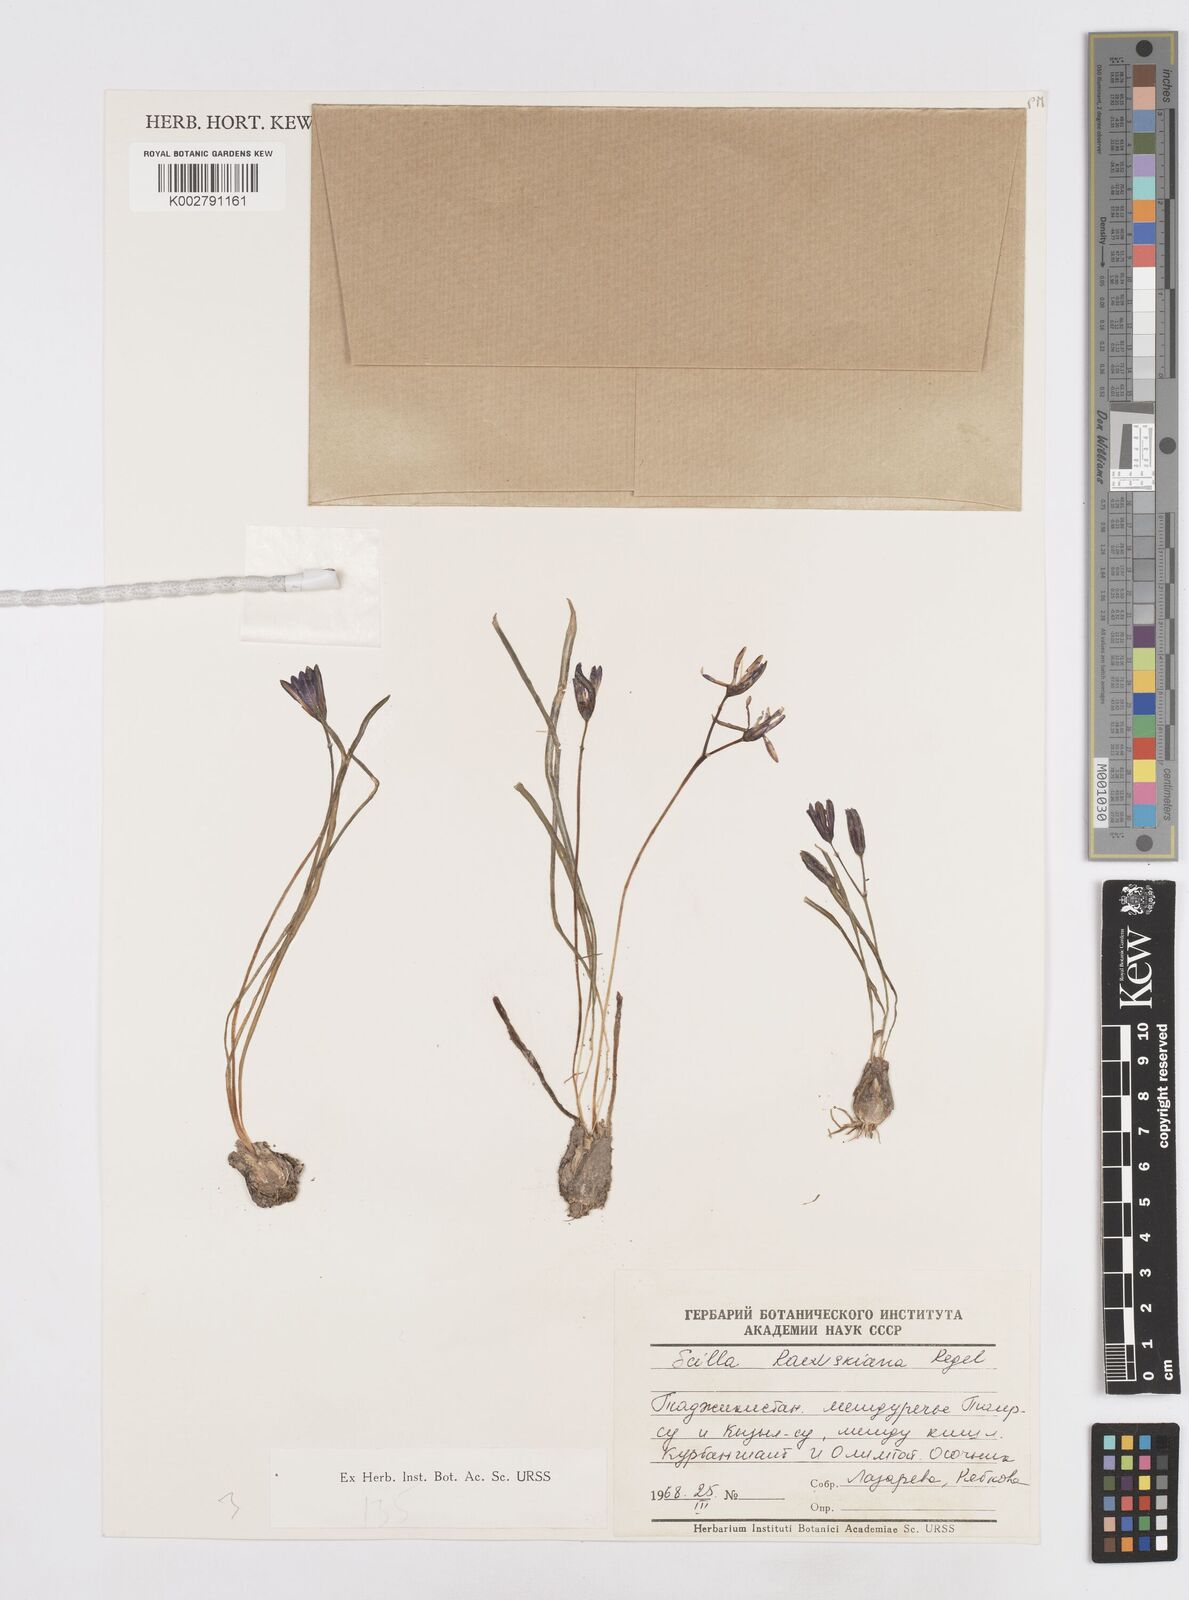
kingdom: Plantae
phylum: Tracheophyta
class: Liliopsida
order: Asparagales
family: Asparagaceae
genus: Fessia
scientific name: Fessia raewskiana
